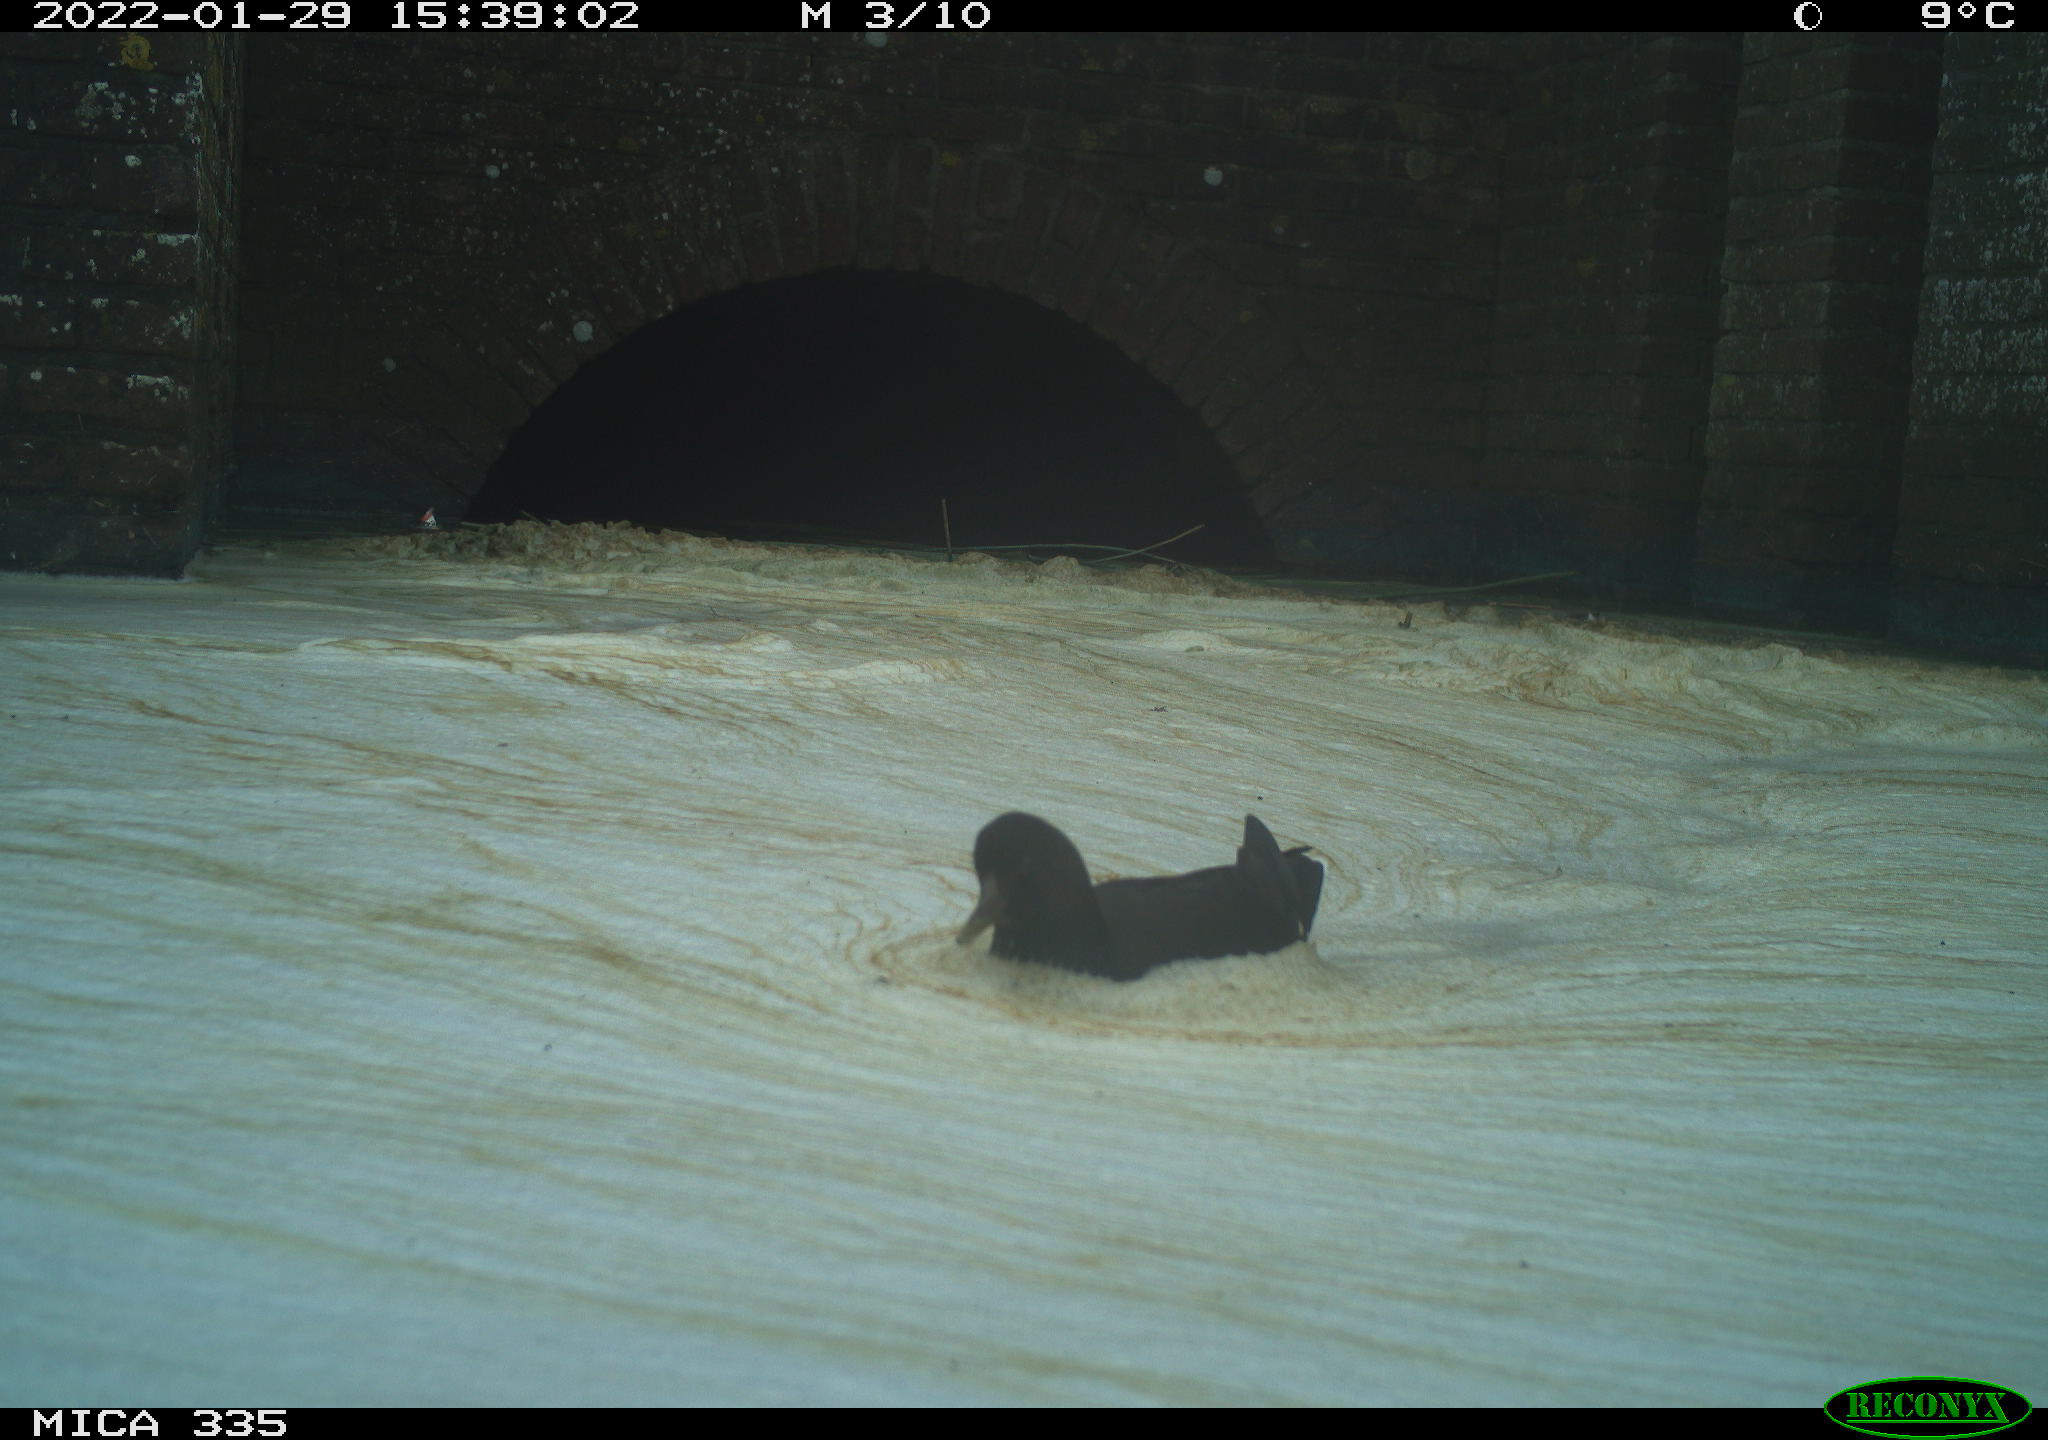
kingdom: Animalia
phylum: Chordata
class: Aves
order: Gruiformes
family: Rallidae
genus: Gallinula
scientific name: Gallinula chloropus
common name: Common moorhen
